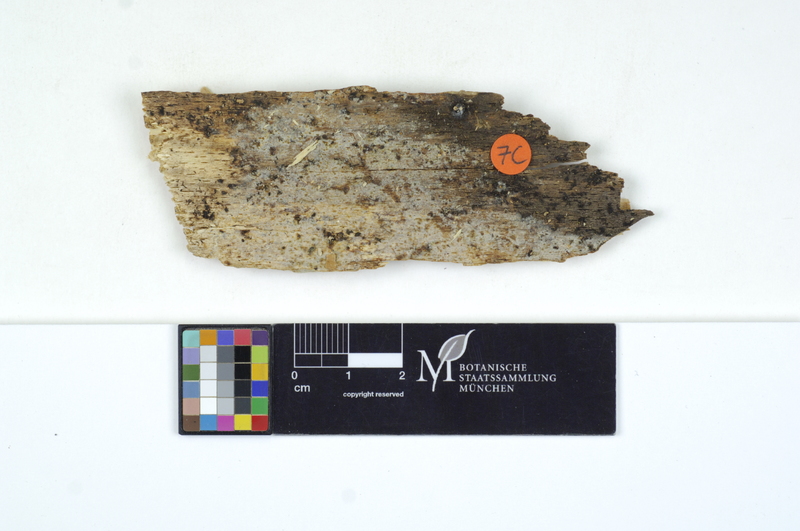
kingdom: Fungi
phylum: Basidiomycota
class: Microbotryomycetes
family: Colacogloeaceae
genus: Colacogloea
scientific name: Colacogloea peniophorae
